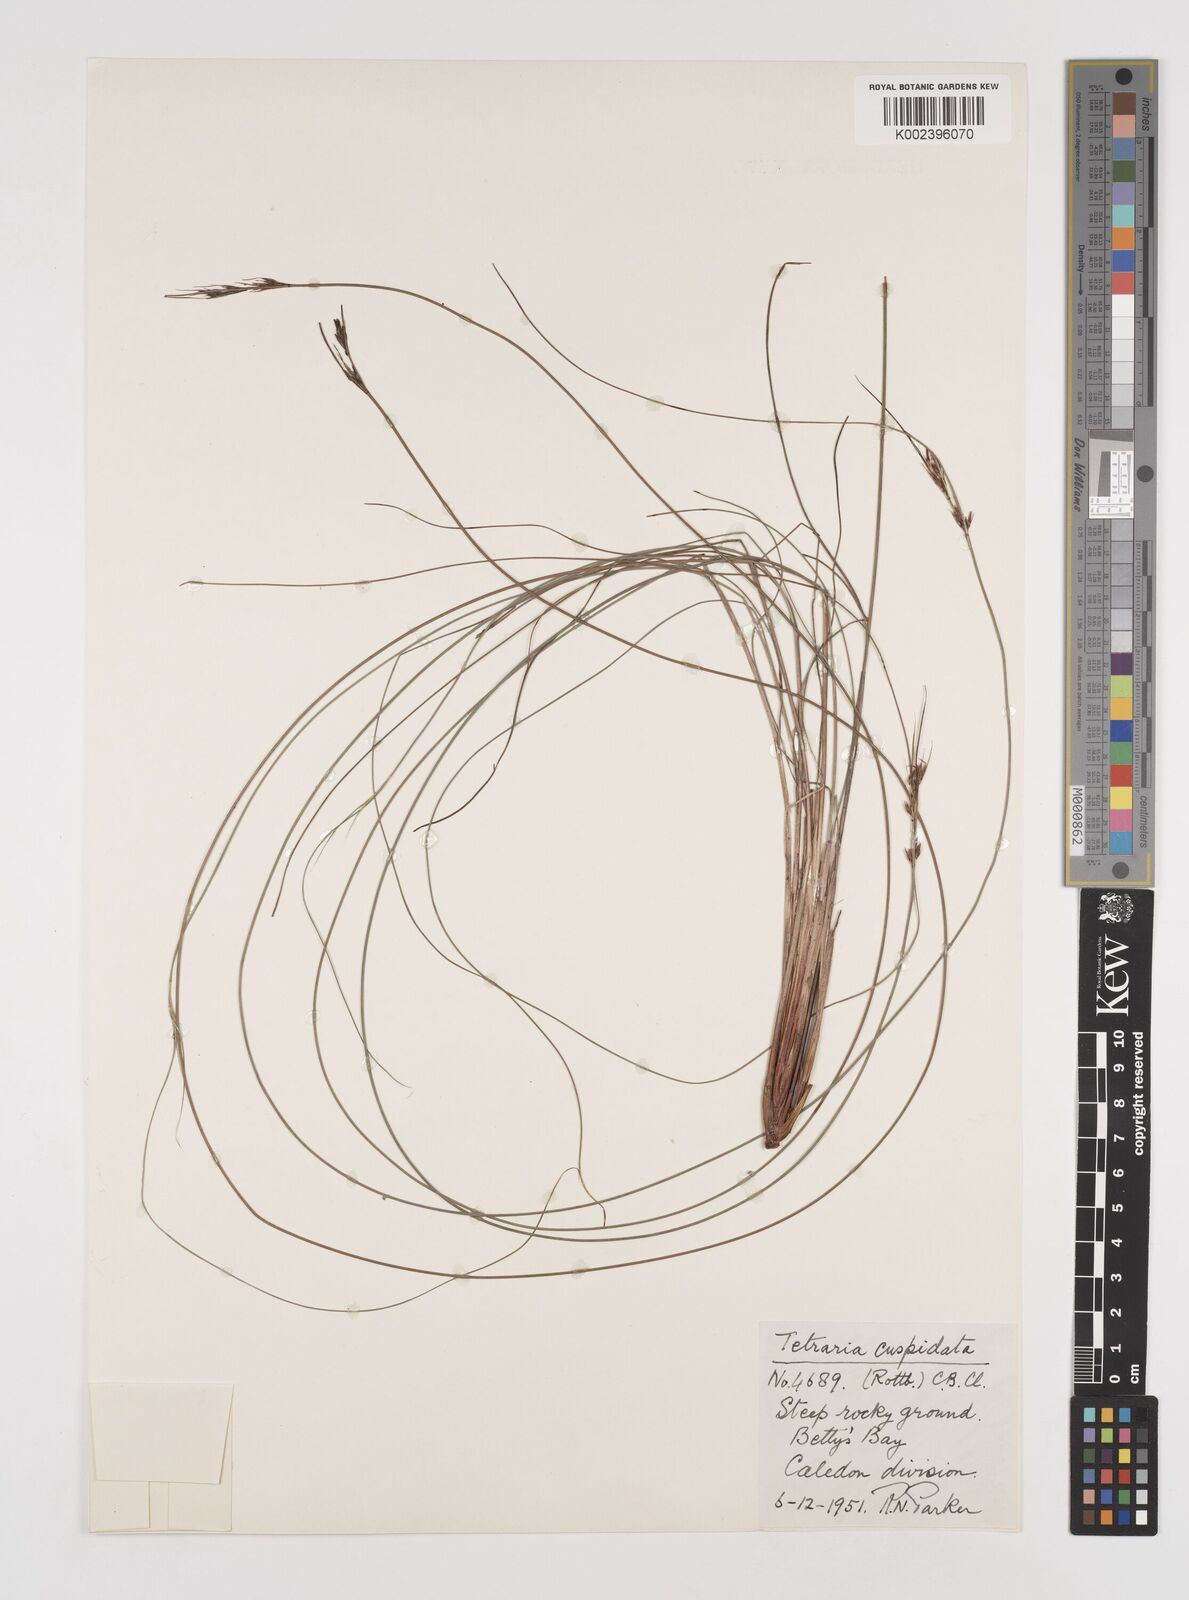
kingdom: Plantae
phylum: Tracheophyta
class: Liliopsida
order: Poales
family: Cyperaceae
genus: Schoenus
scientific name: Schoenus cuspidatus
